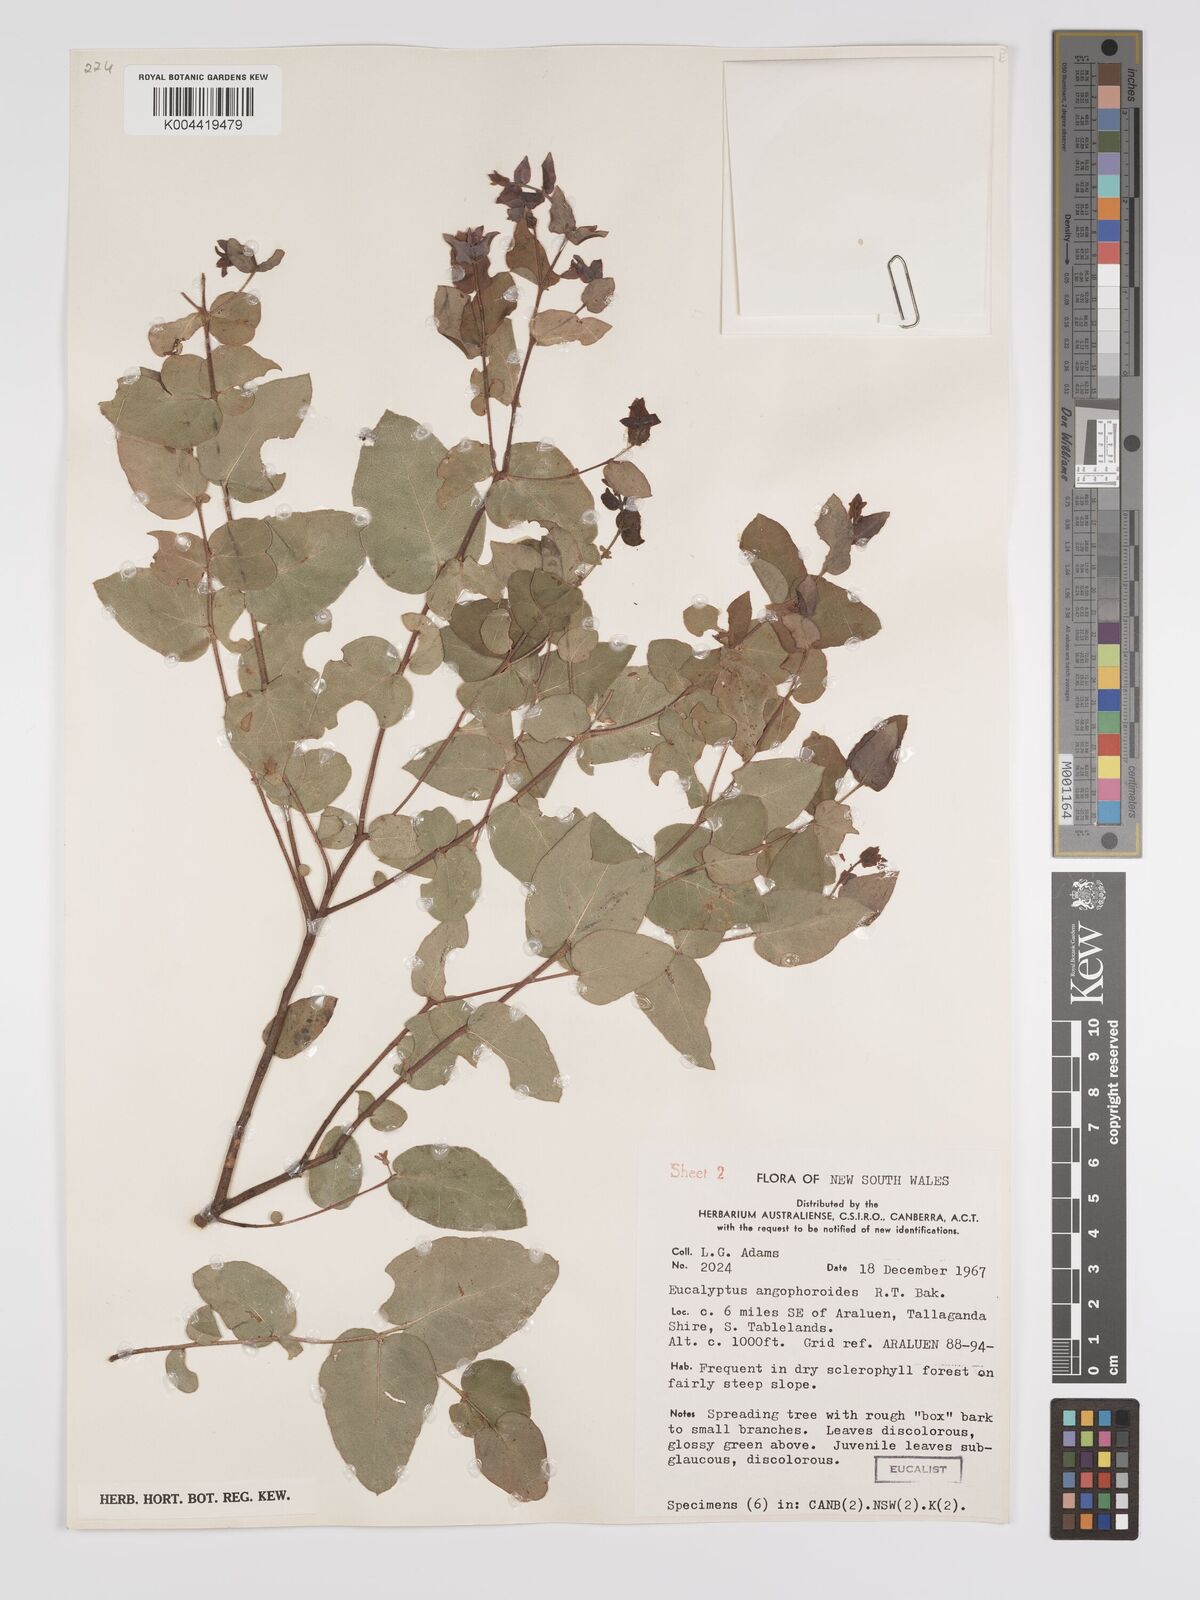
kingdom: Plantae
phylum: Tracheophyta
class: Magnoliopsida
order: Myrtales
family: Myrtaceae
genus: Eucalyptus
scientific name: Eucalyptus angophoroides
